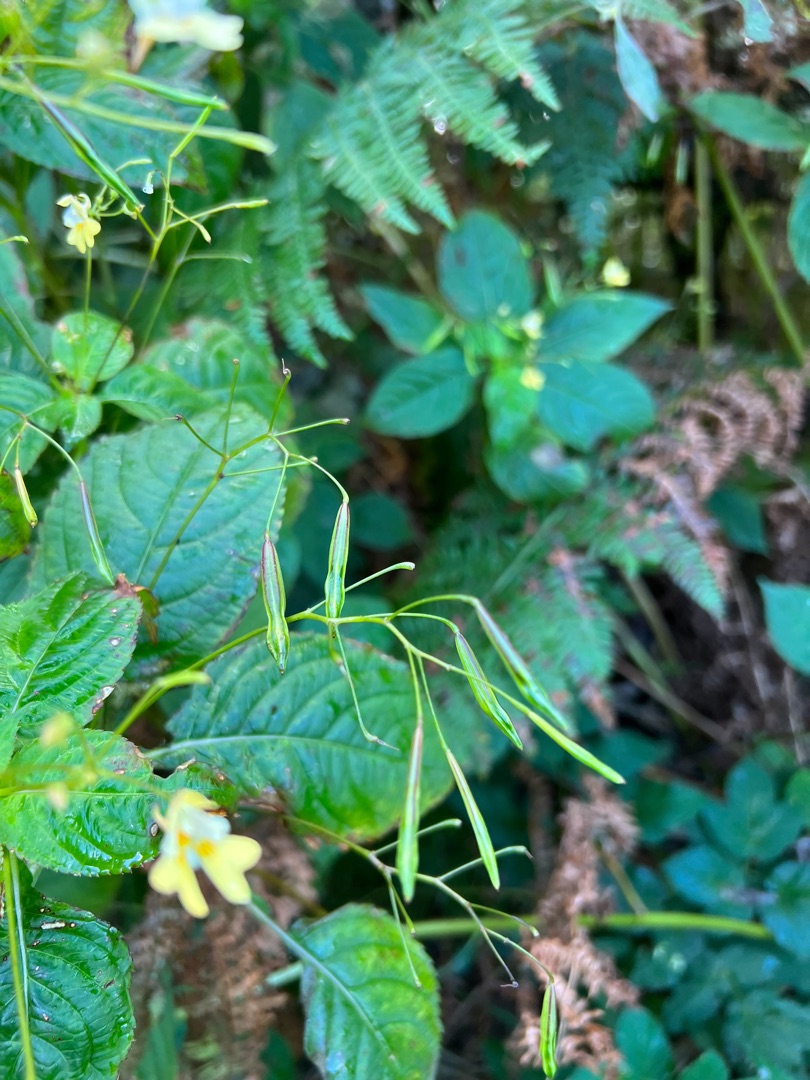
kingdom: Plantae
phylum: Tracheophyta
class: Magnoliopsida
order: Ericales
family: Balsaminaceae
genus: Impatiens
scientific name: Impatiens parviflora
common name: Småblomstret balsamin
